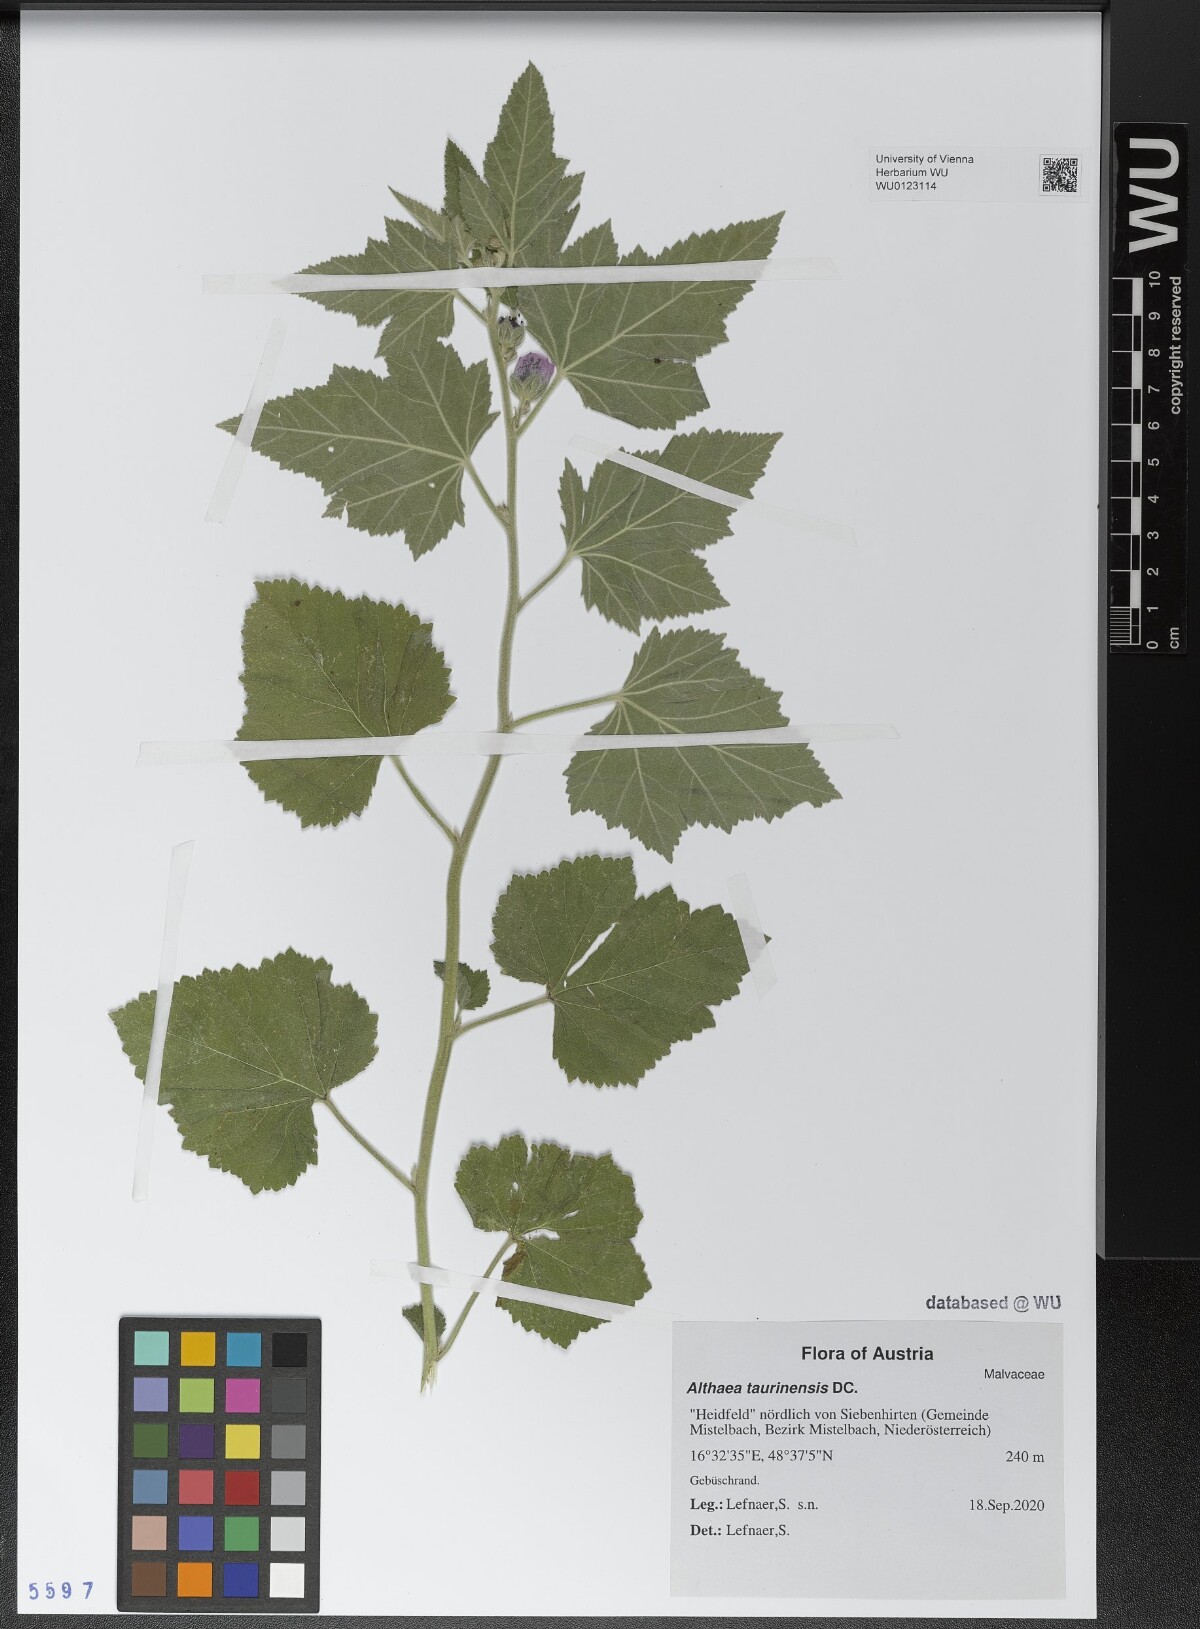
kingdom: Plantae
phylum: Tracheophyta
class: Magnoliopsida
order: Malvales
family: Malvaceae
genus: Althaea
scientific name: Althaea taurinensis
